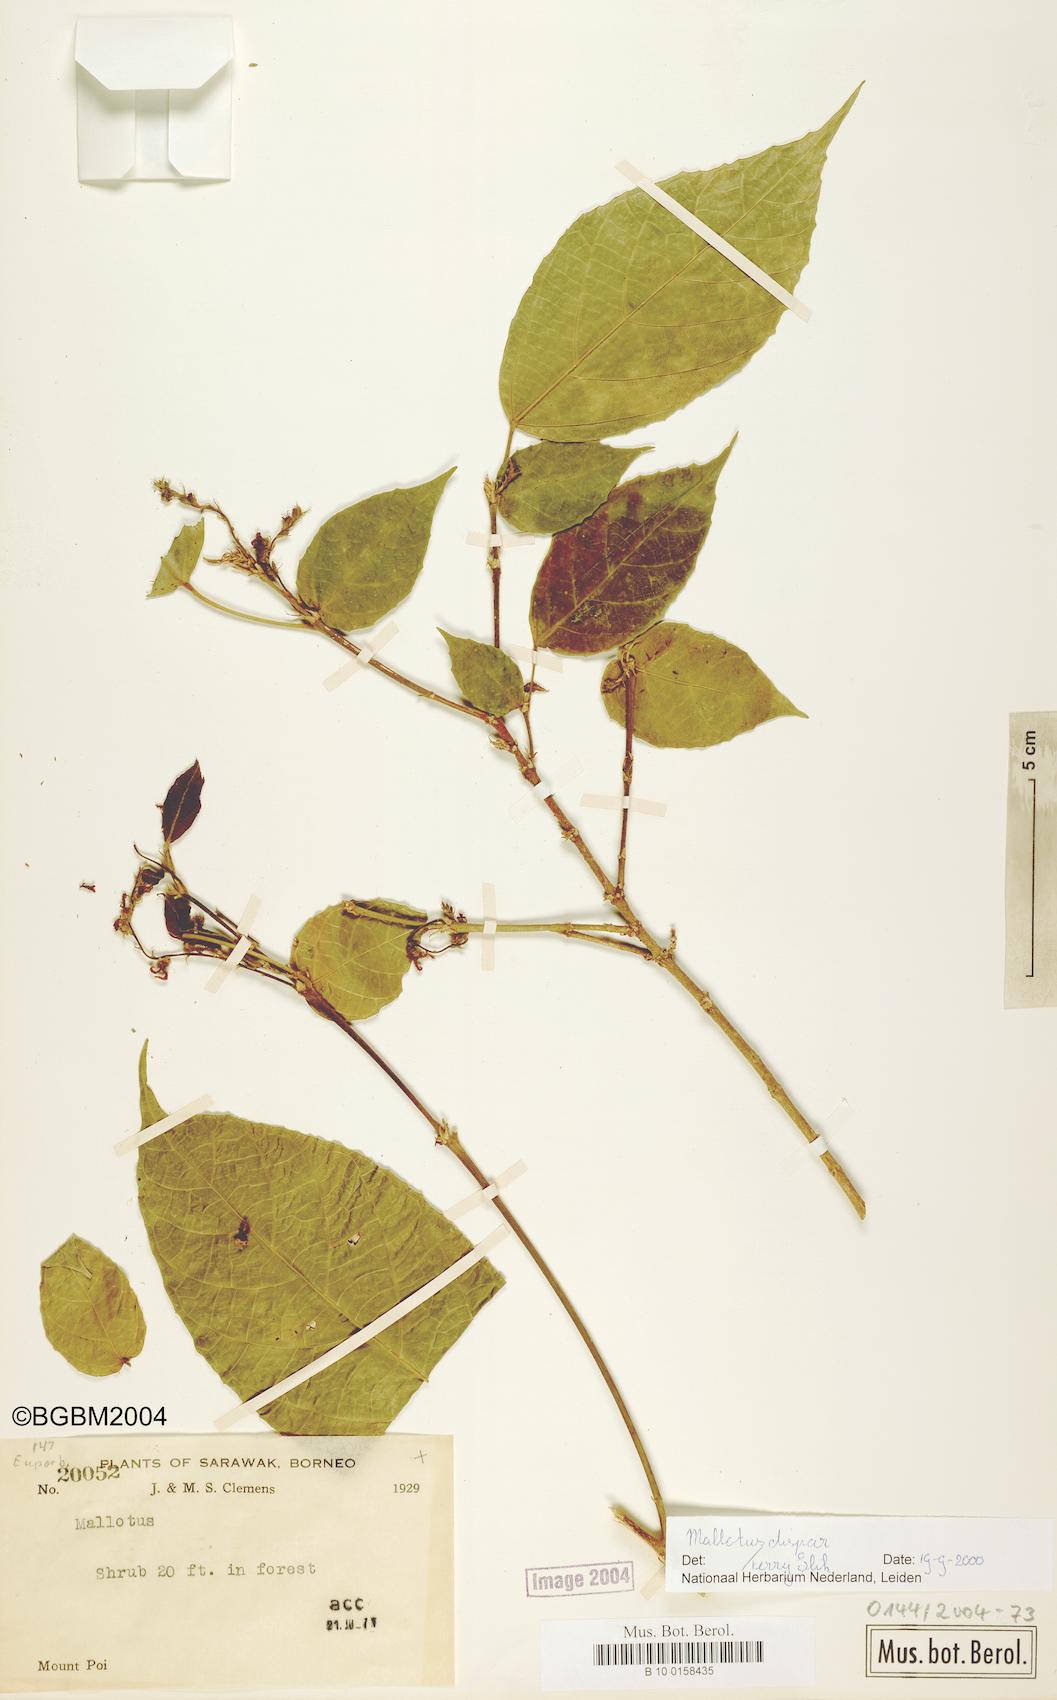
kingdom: Plantae
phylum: Tracheophyta
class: Magnoliopsida
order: Malpighiales
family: Euphorbiaceae
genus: Mallotus
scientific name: Mallotus minimifructus
